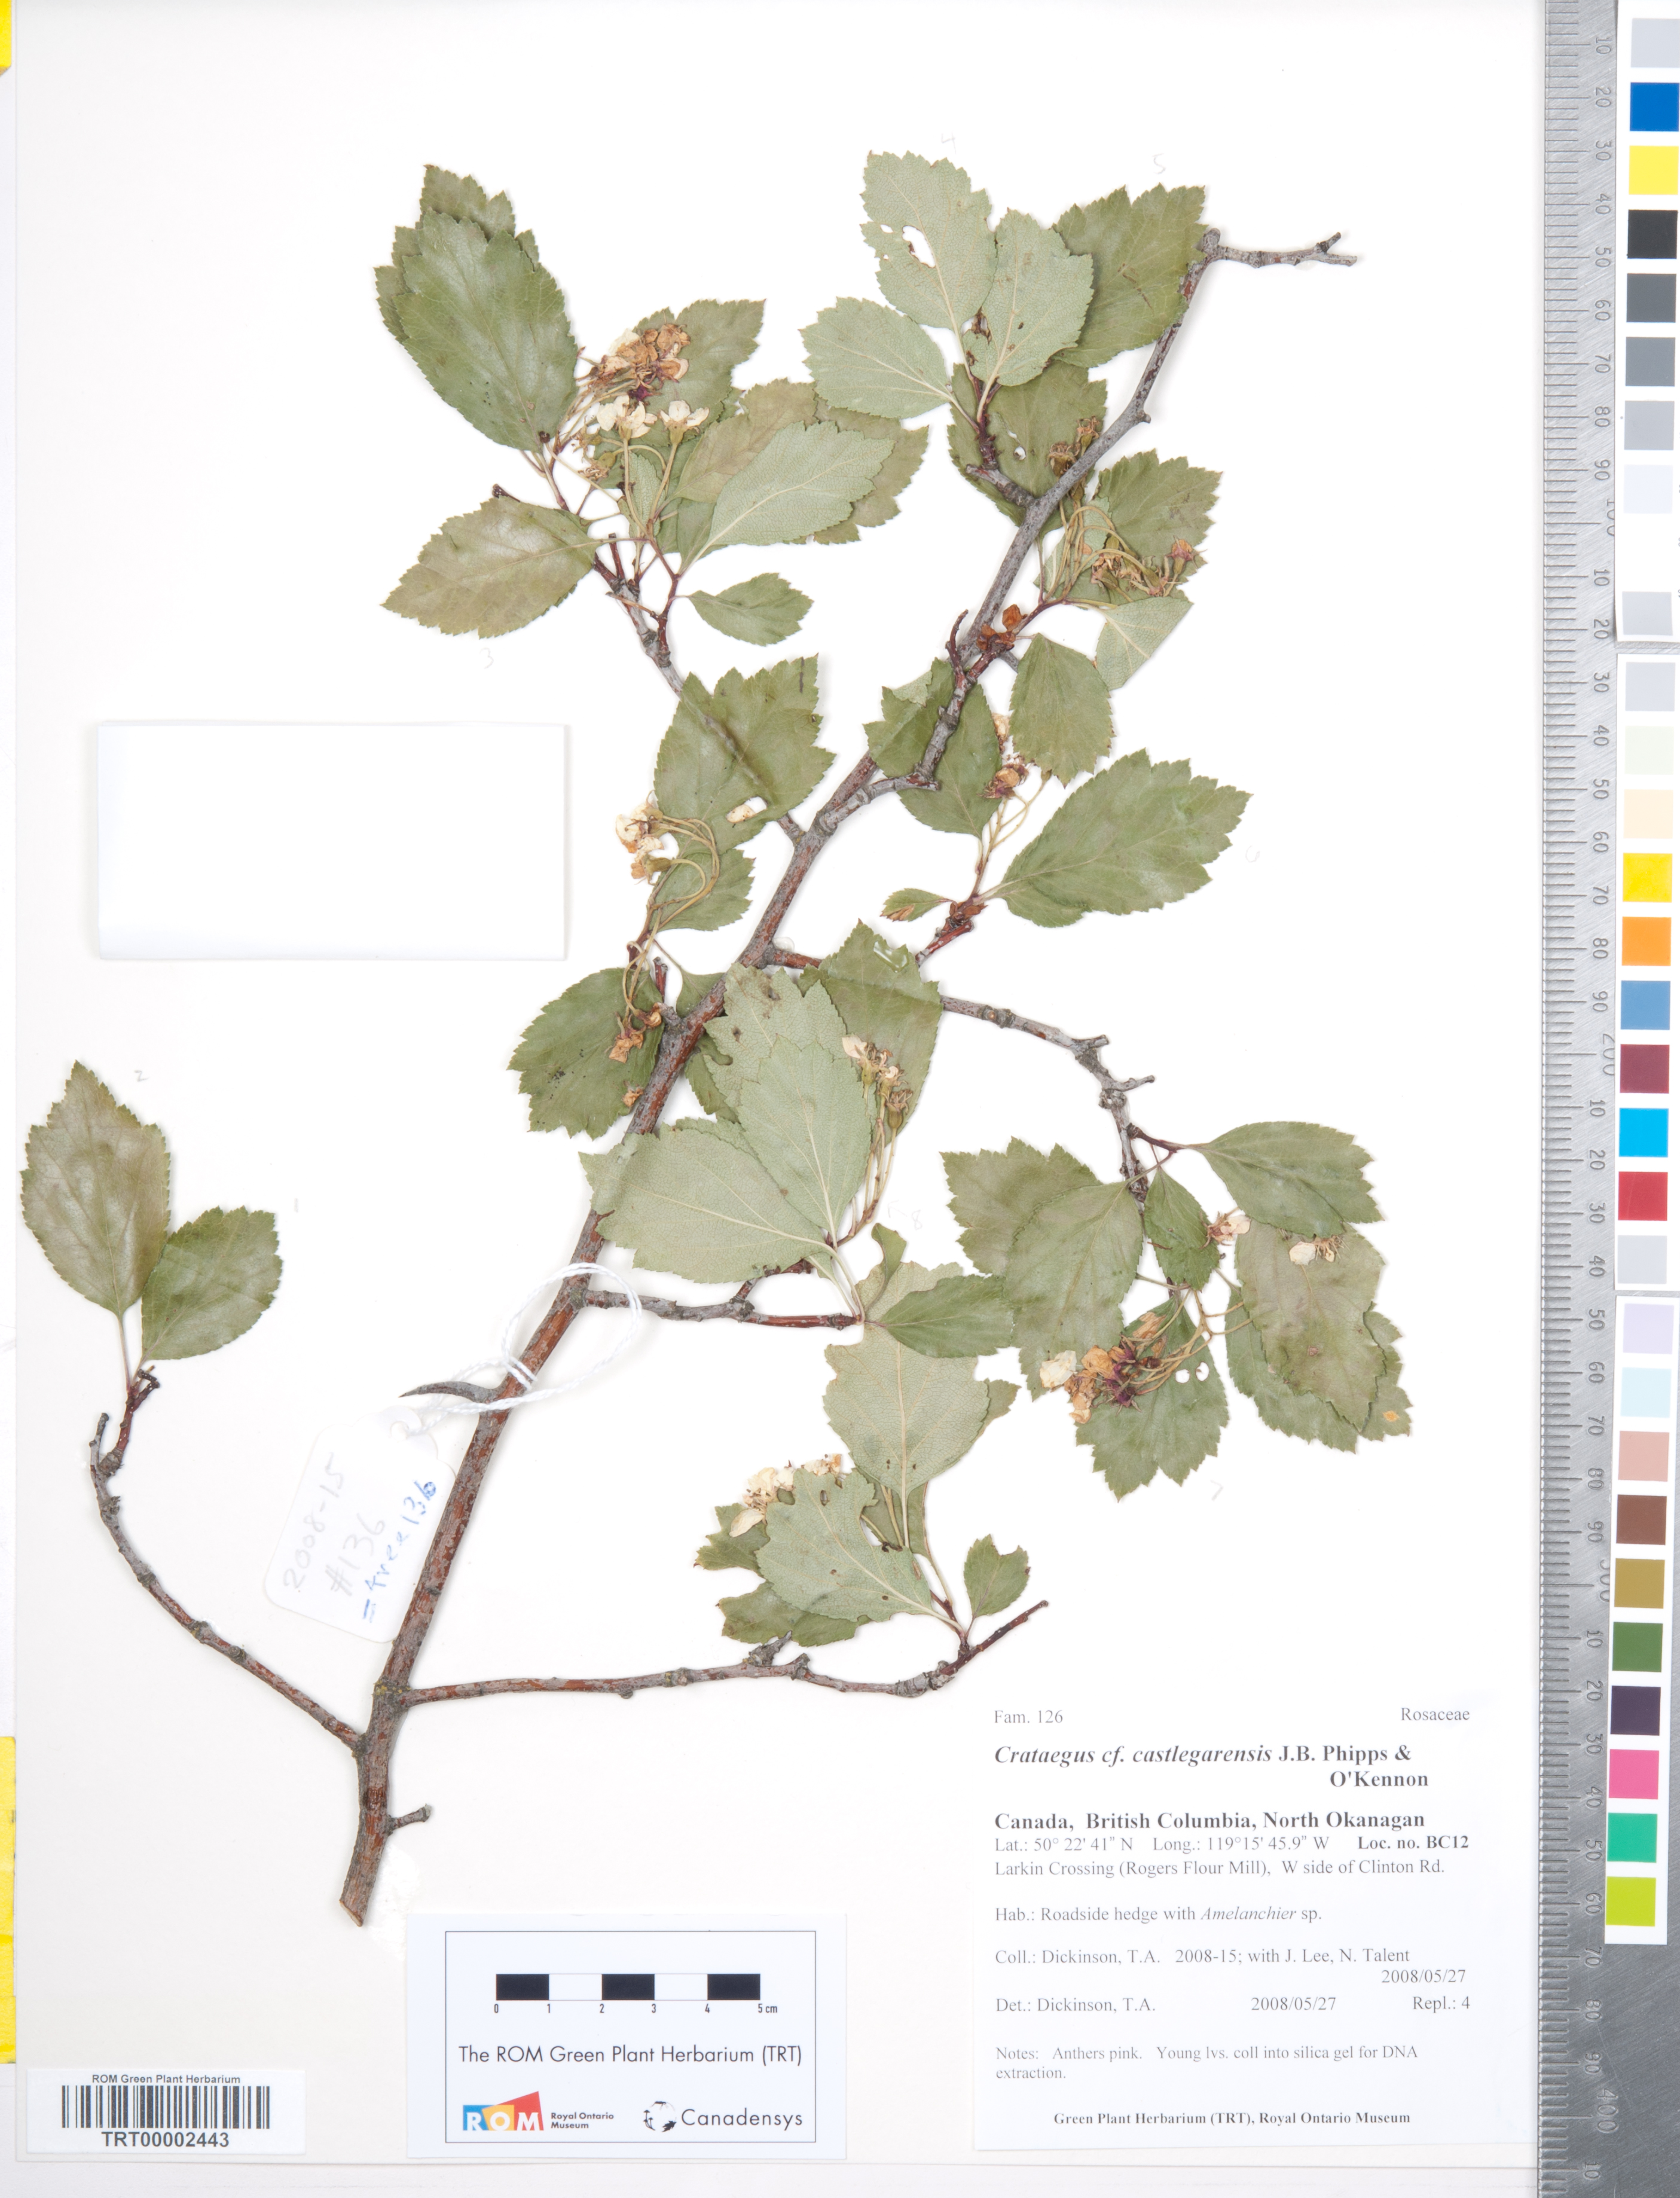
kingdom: Plantae
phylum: Tracheophyta
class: Magnoliopsida
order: Rosales
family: Rosaceae
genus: Crataegus
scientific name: Crataegus castlegarensis
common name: Castlegar hawthorn
